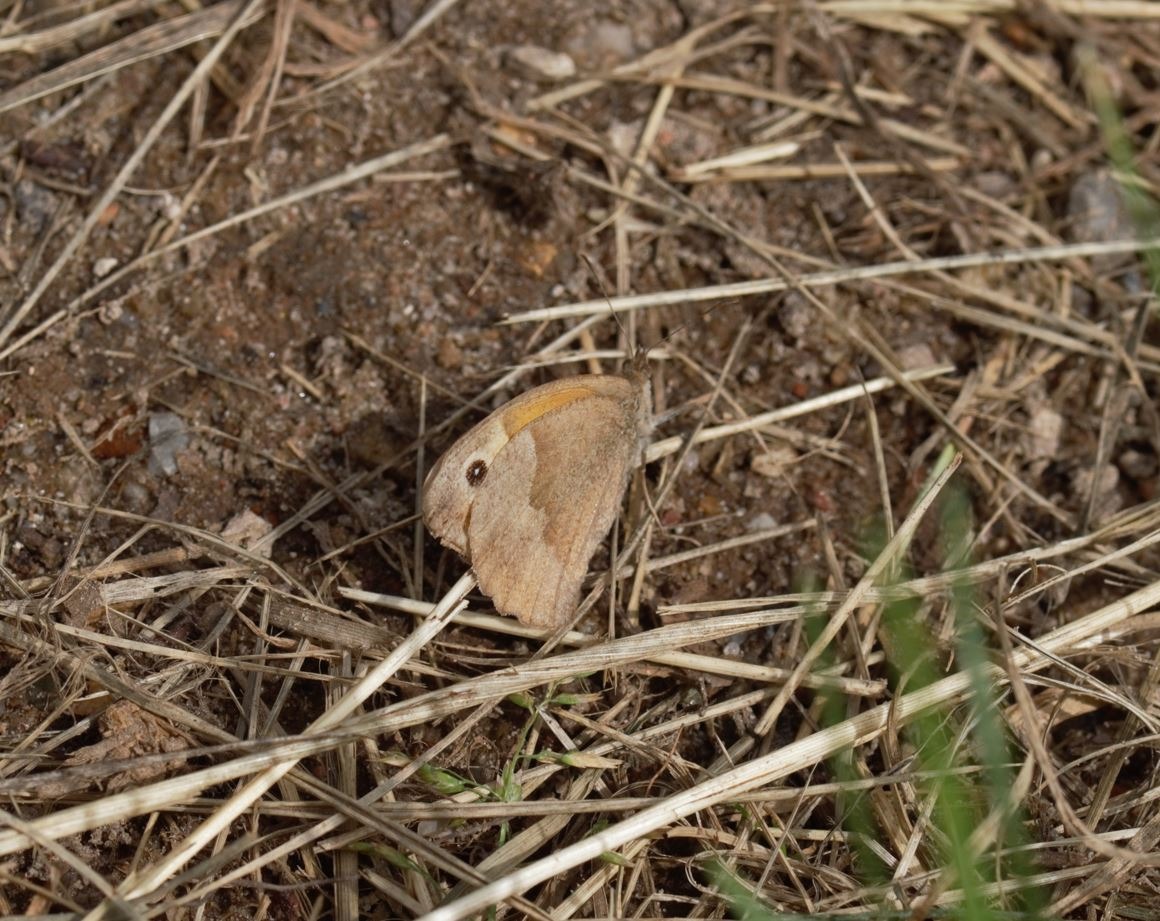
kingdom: Animalia
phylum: Arthropoda
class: Insecta
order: Lepidoptera
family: Nymphalidae
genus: Maniola
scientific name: Maniola jurtina
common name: Græsrandøje
